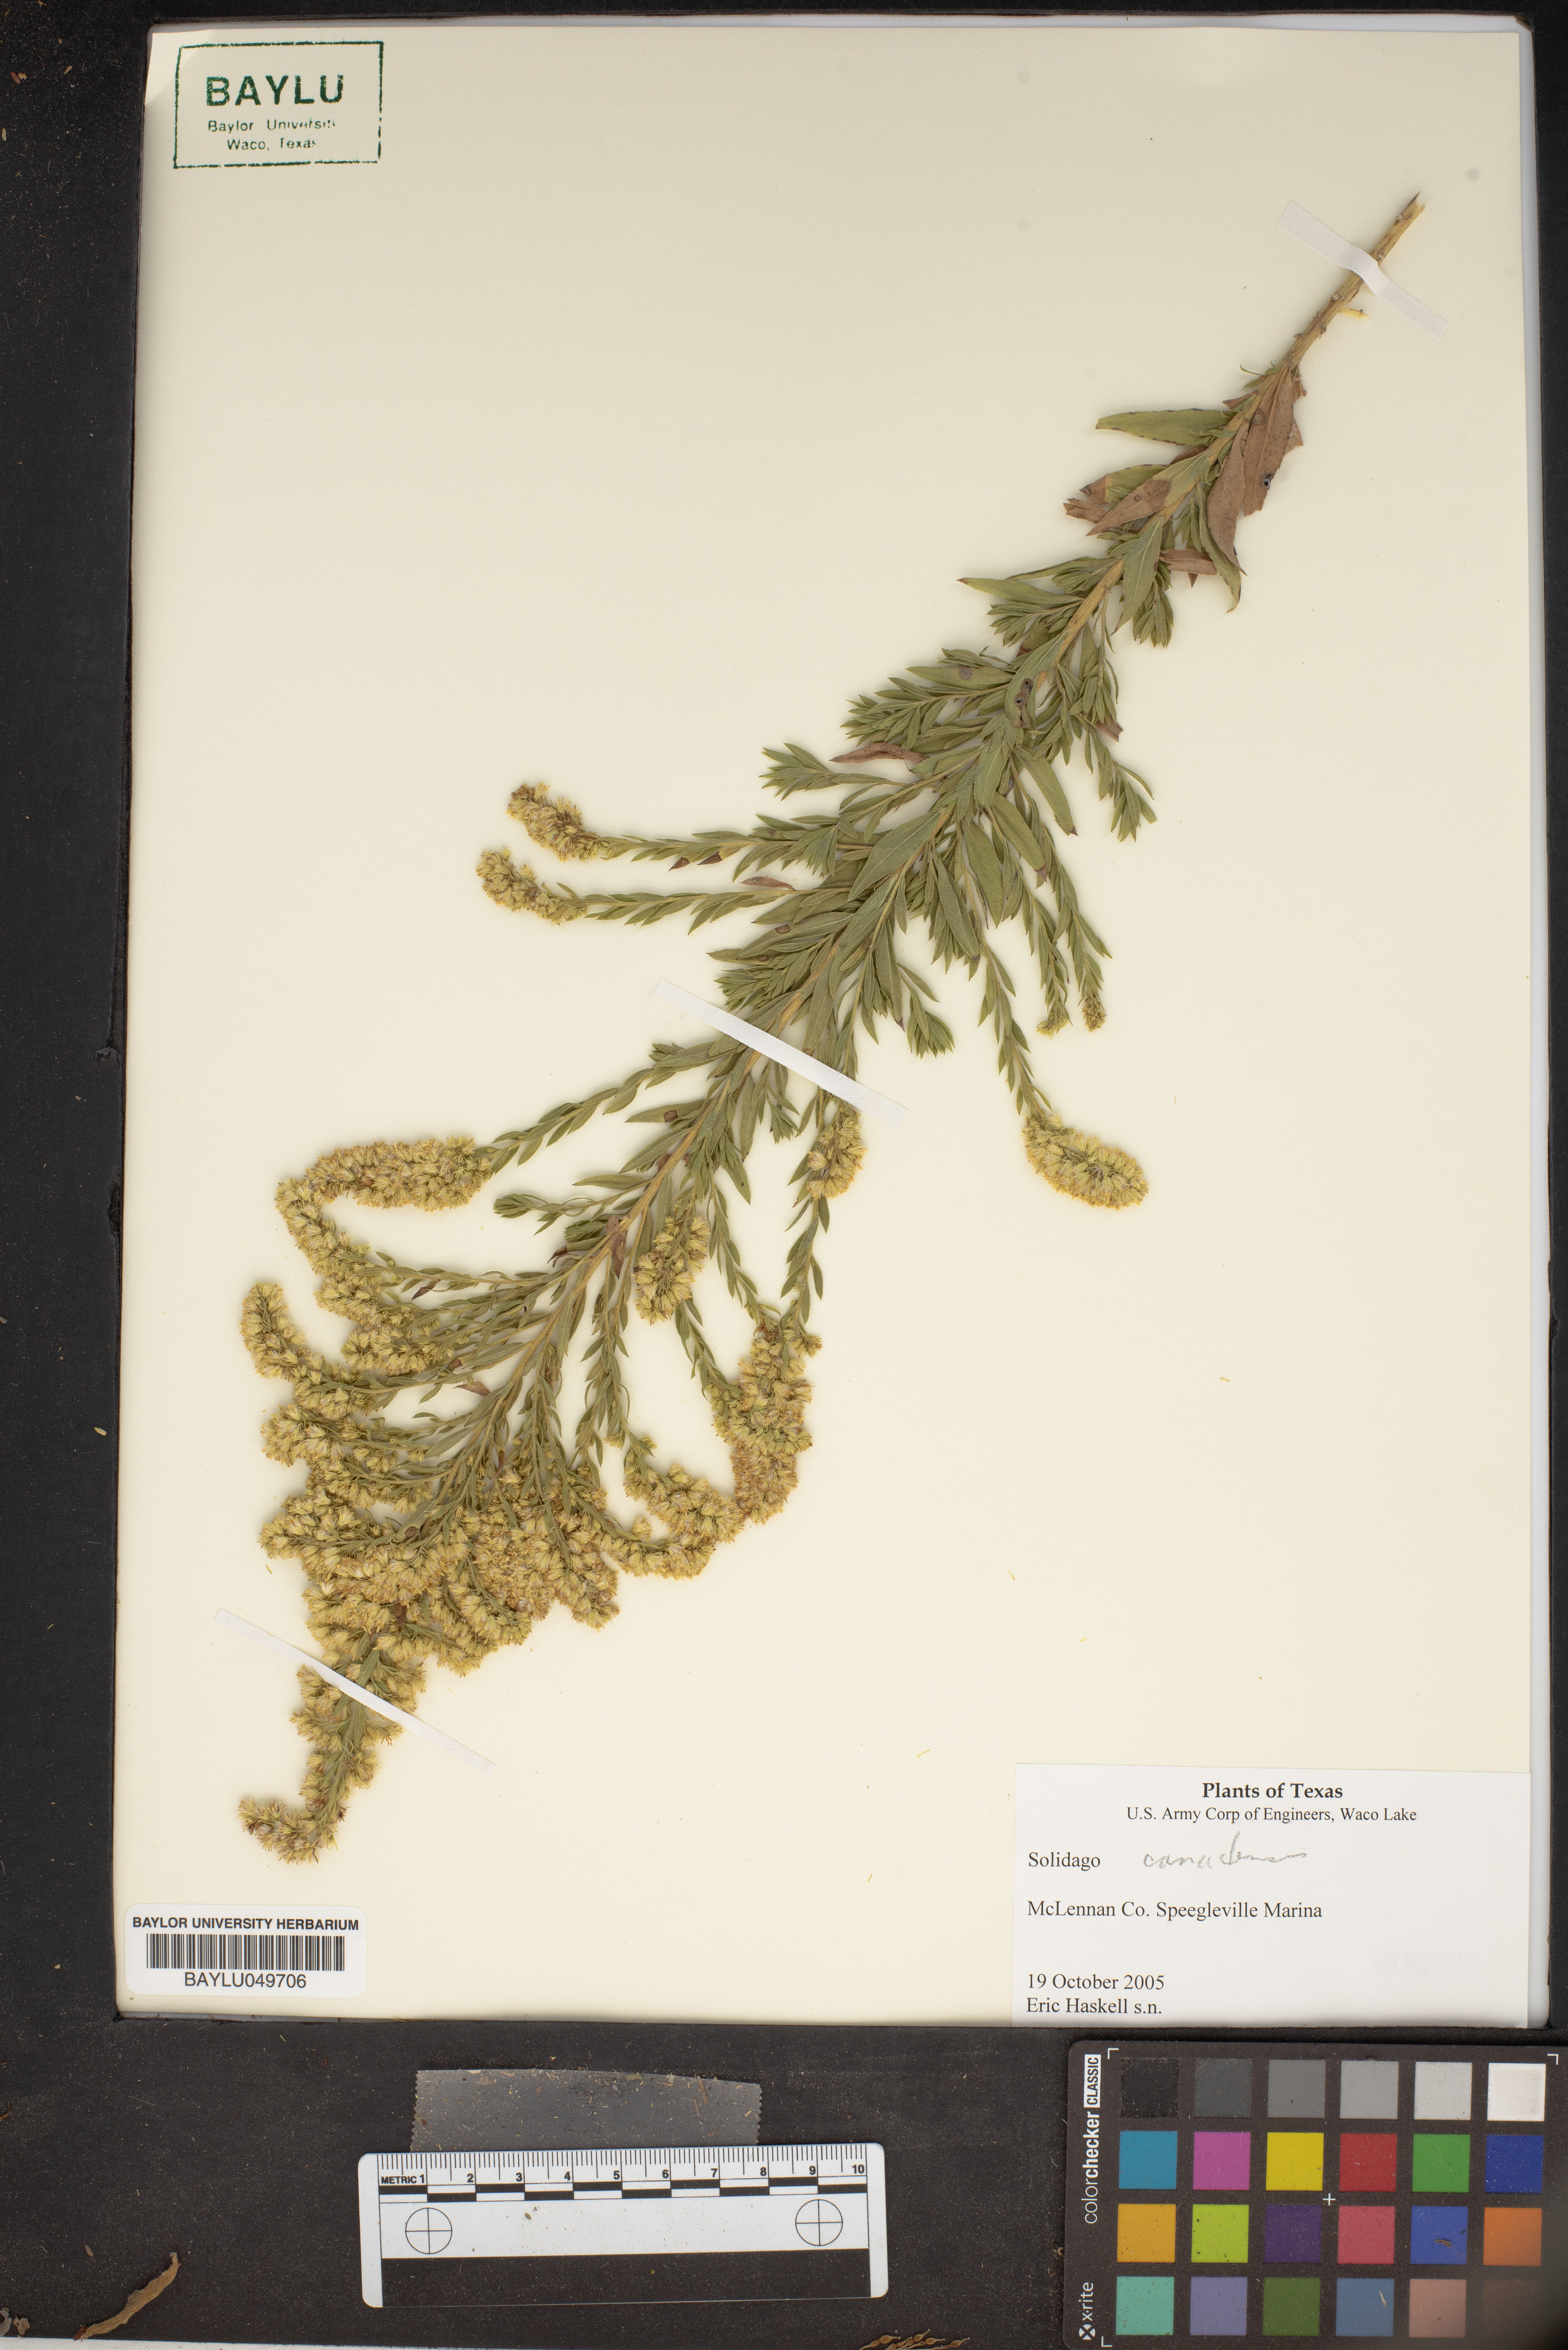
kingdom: Plantae
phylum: Tracheophyta
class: Magnoliopsida
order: Asterales
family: Asteraceae
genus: Solidago
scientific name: Solidago canadensis
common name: Canada goldenrod
